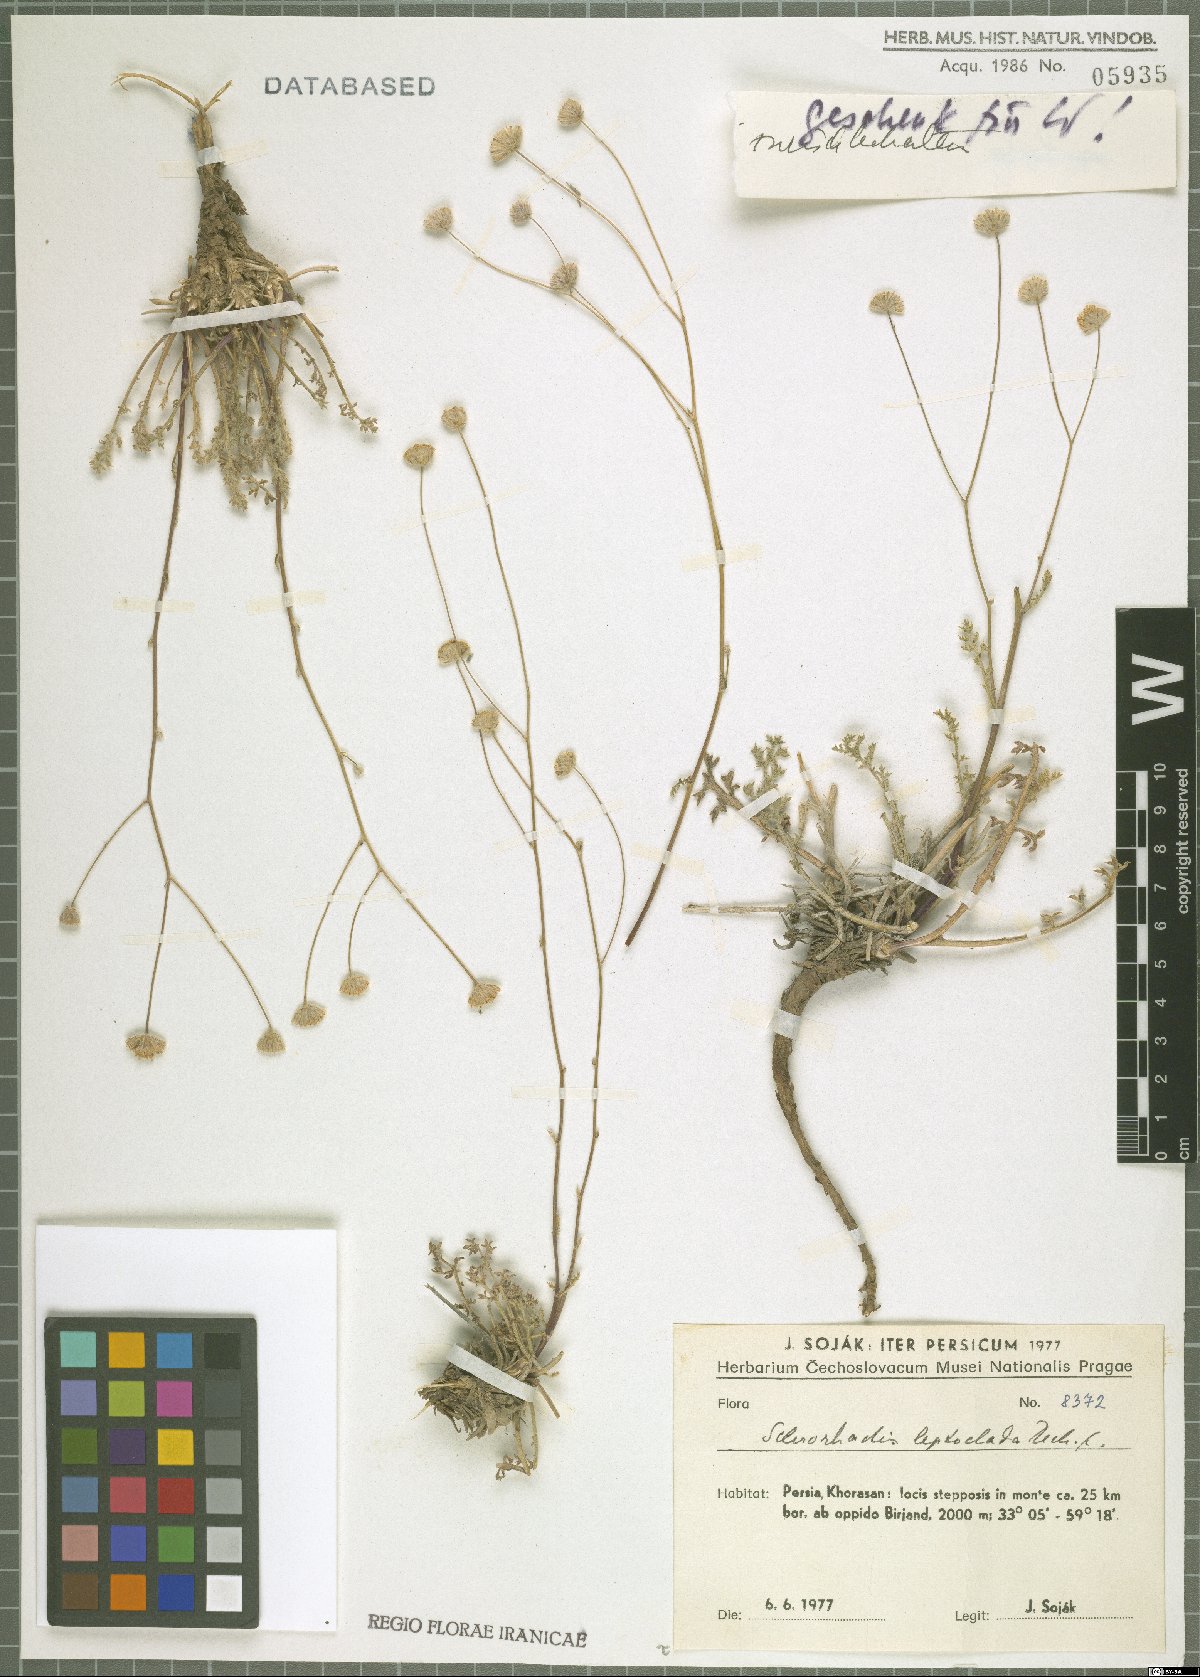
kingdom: Plantae
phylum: Tracheophyta
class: Magnoliopsida
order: Asterales
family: Asteraceae
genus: Sclerorhachis
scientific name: Sclerorhachis leptoclada
